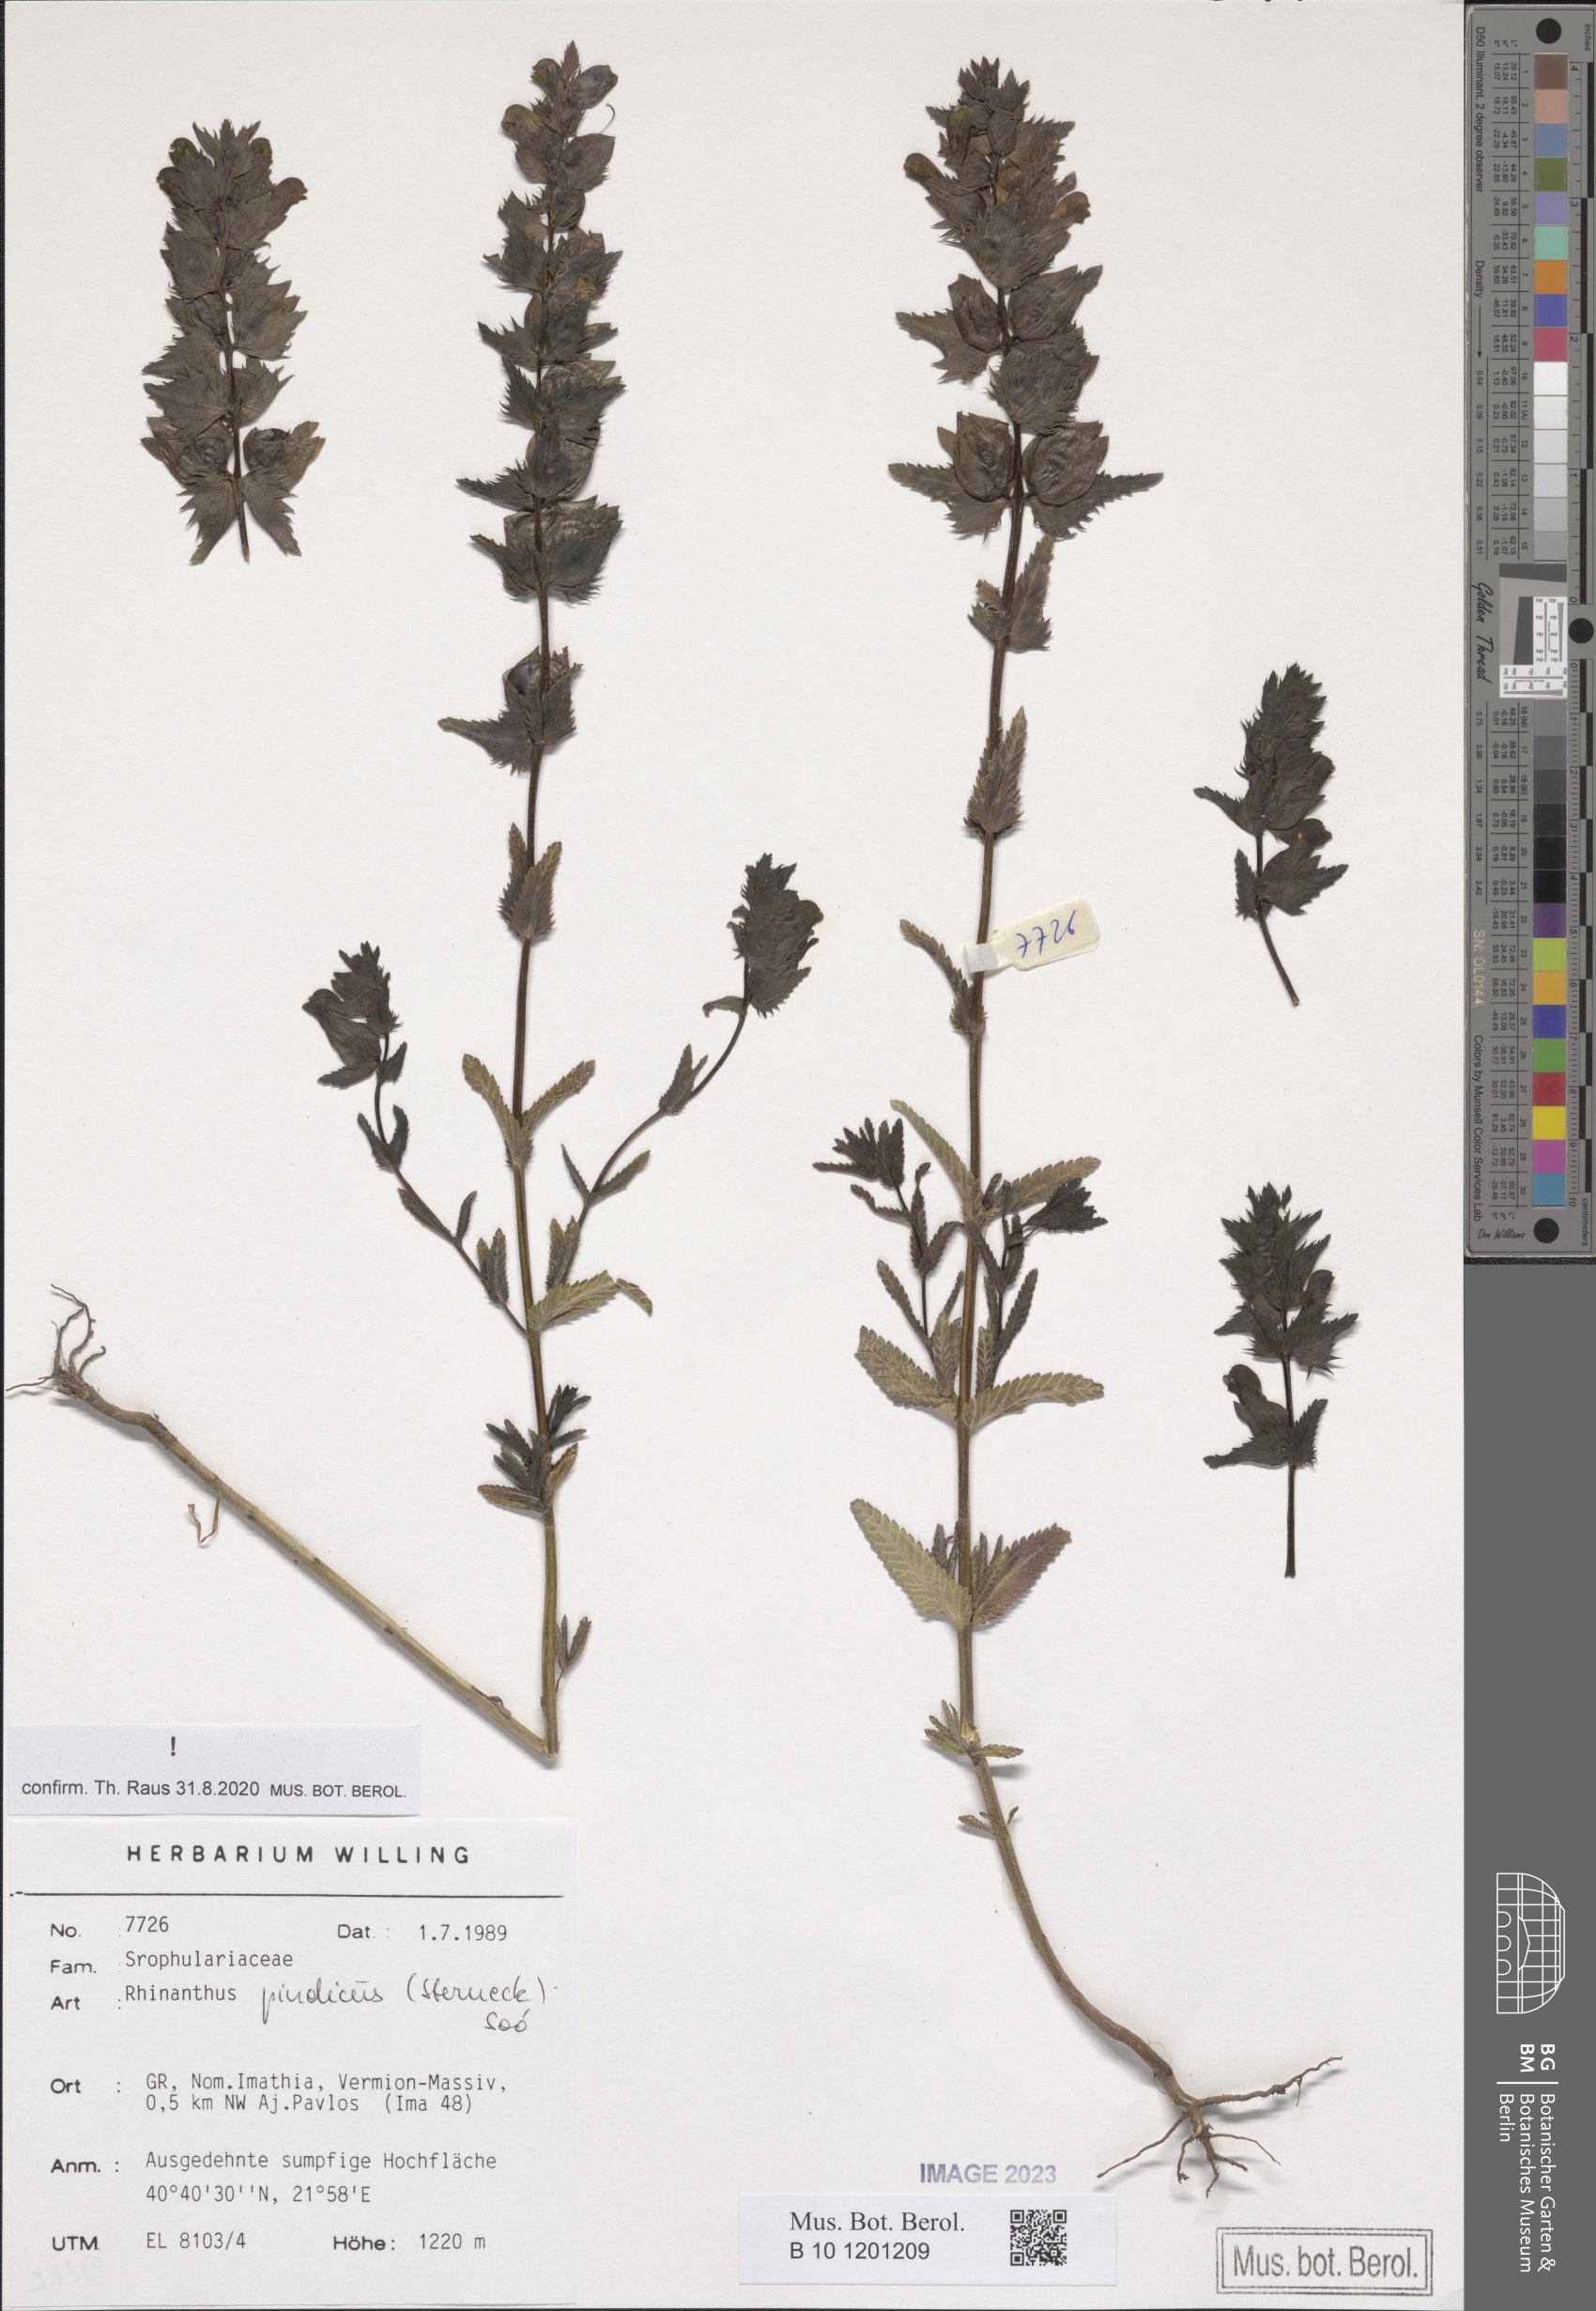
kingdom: Plantae
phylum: Tracheophyta
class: Magnoliopsida
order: Lamiales
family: Orobanchaceae
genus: Rhinanthus
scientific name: Rhinanthus pindicus
